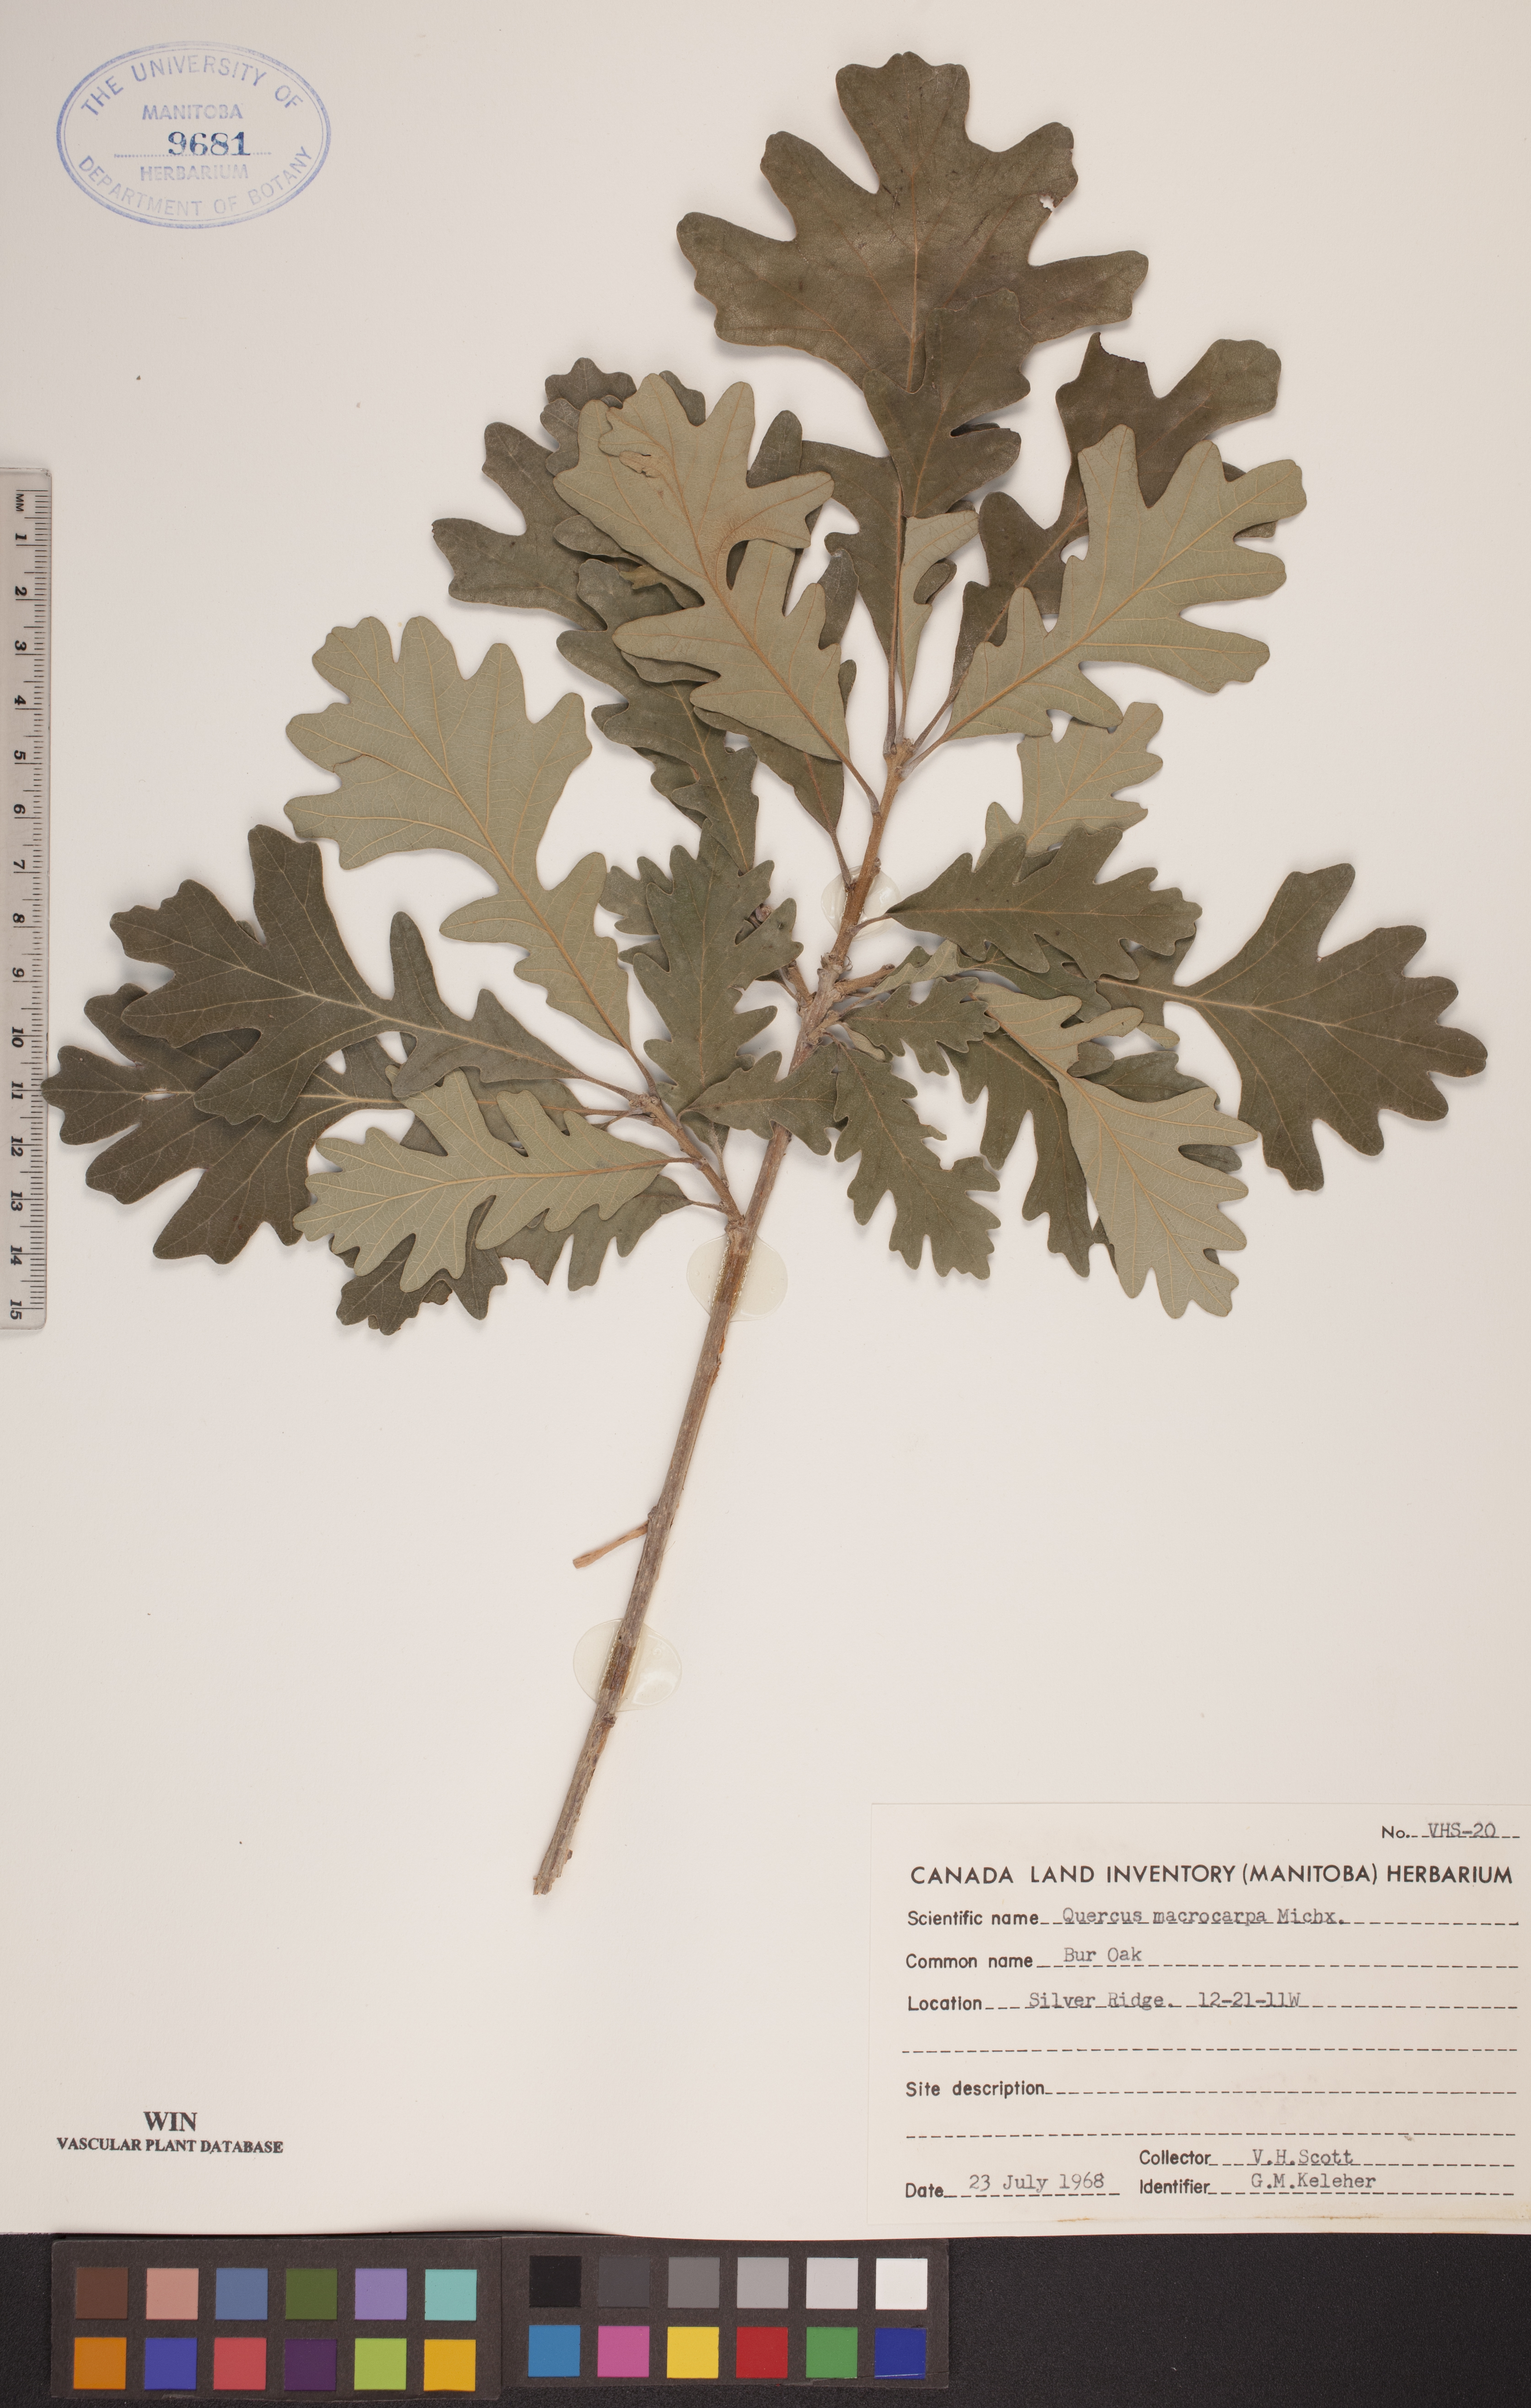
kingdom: Plantae
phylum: Tracheophyta
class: Magnoliopsida
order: Fagales
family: Fagaceae
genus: Quercus
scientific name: Quercus macrocarpa
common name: Bur oak
